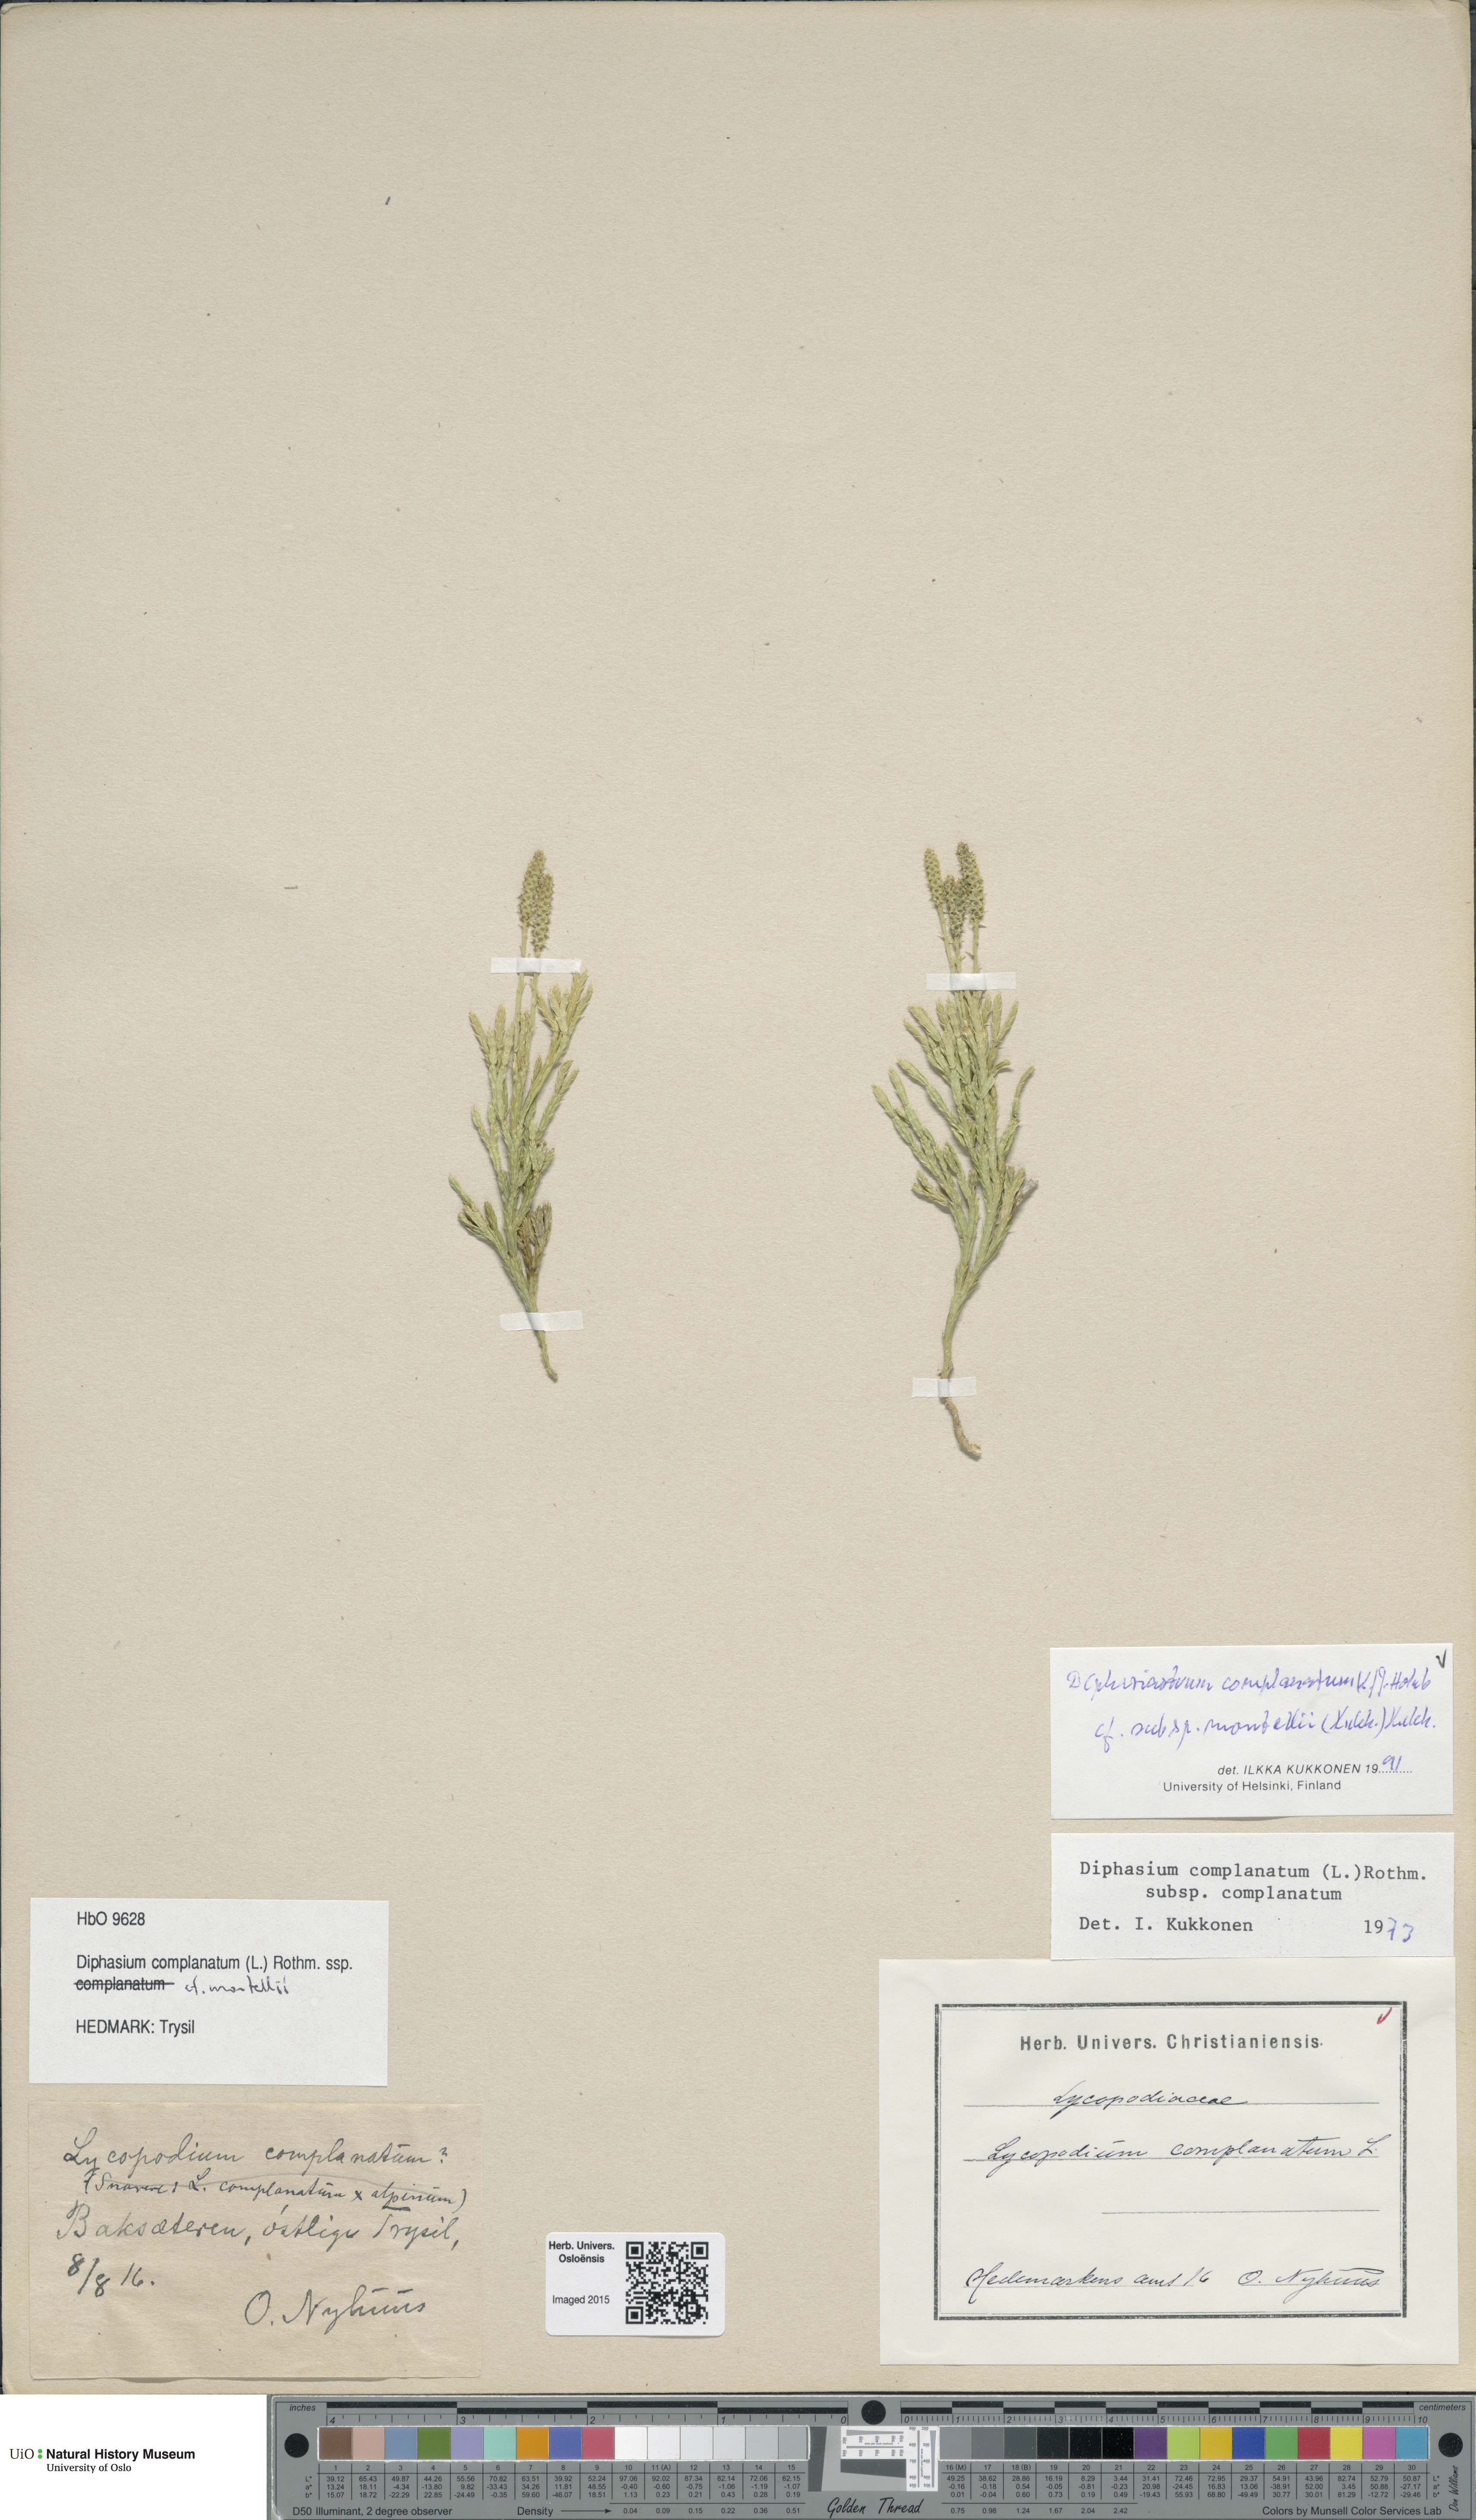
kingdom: Plantae
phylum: Tracheophyta
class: Lycopodiopsida
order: Lycopodiales
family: Lycopodiaceae
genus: Diphasiastrum
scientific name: Diphasiastrum complanatum
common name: Northern running-pine
